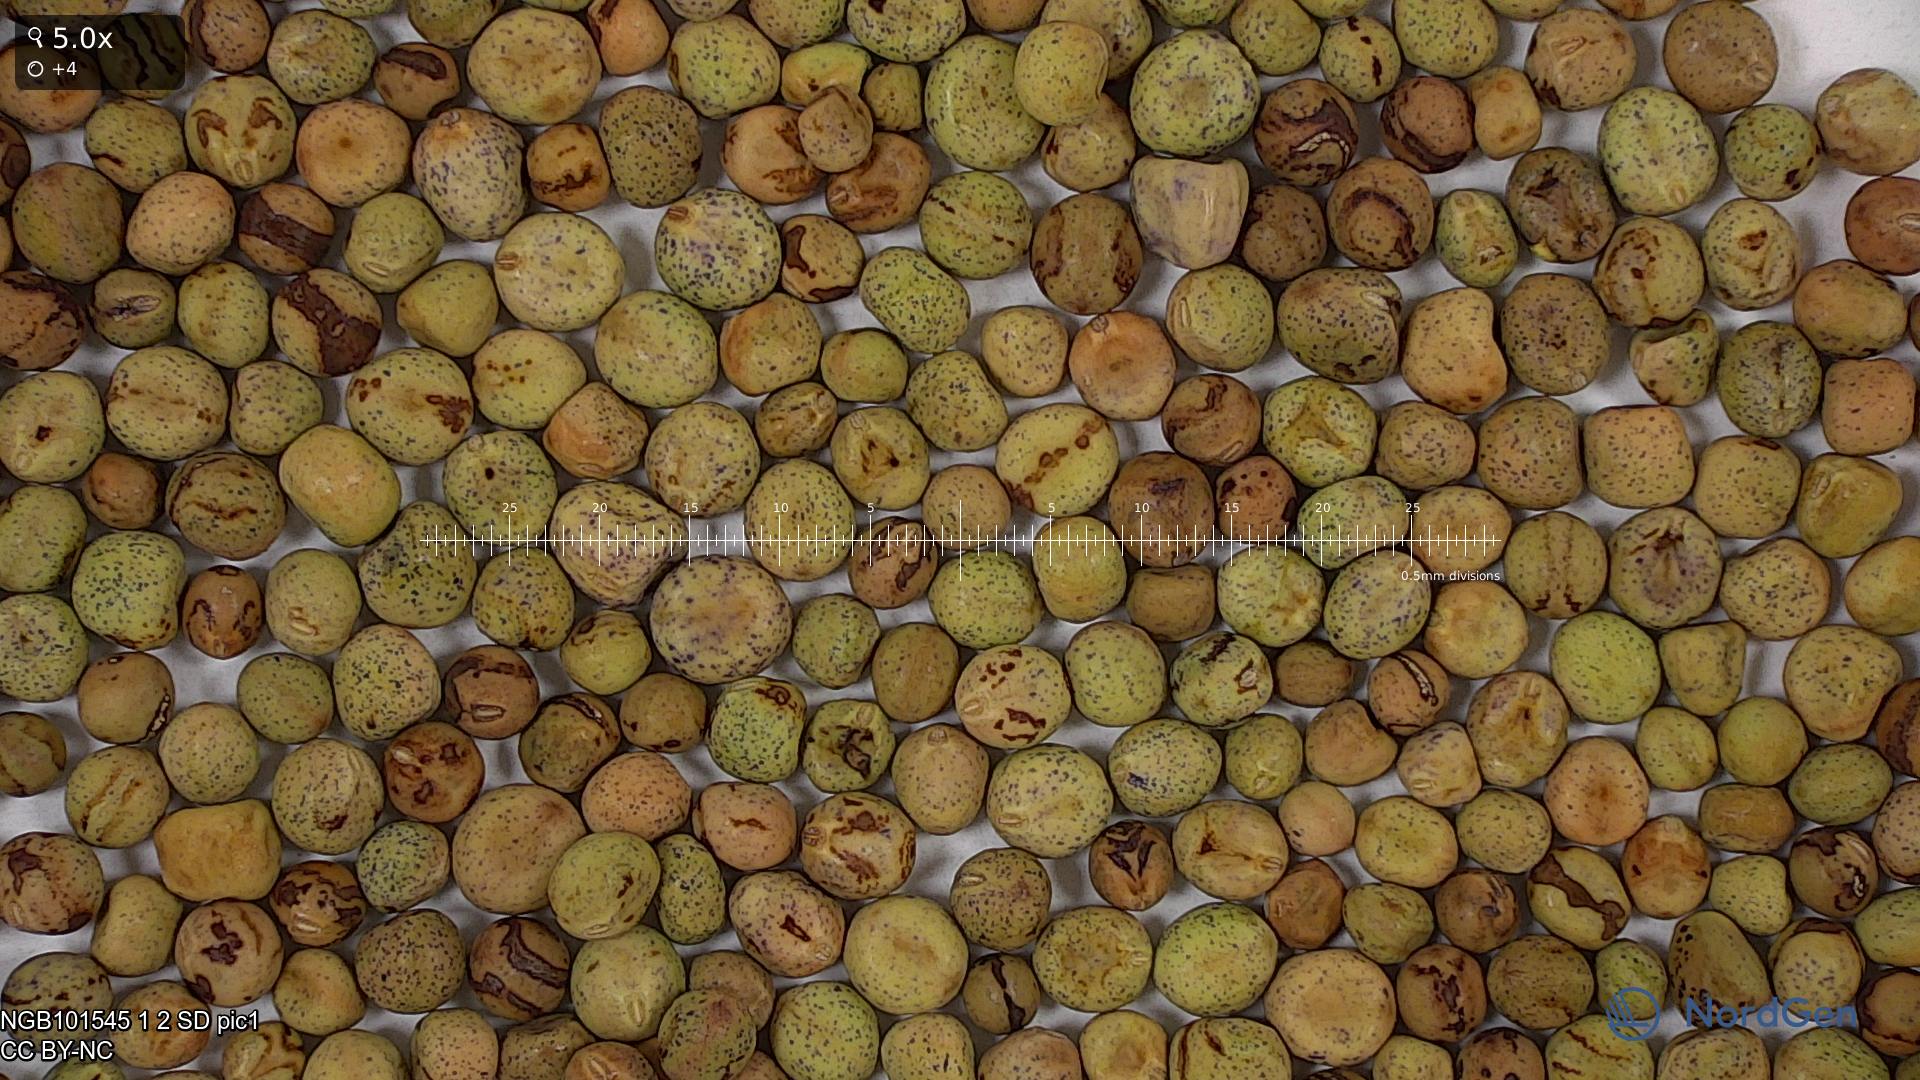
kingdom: Plantae
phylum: Tracheophyta
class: Magnoliopsida
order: Fabales
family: Fabaceae
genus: Lathyrus
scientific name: Lathyrus oleraceus
